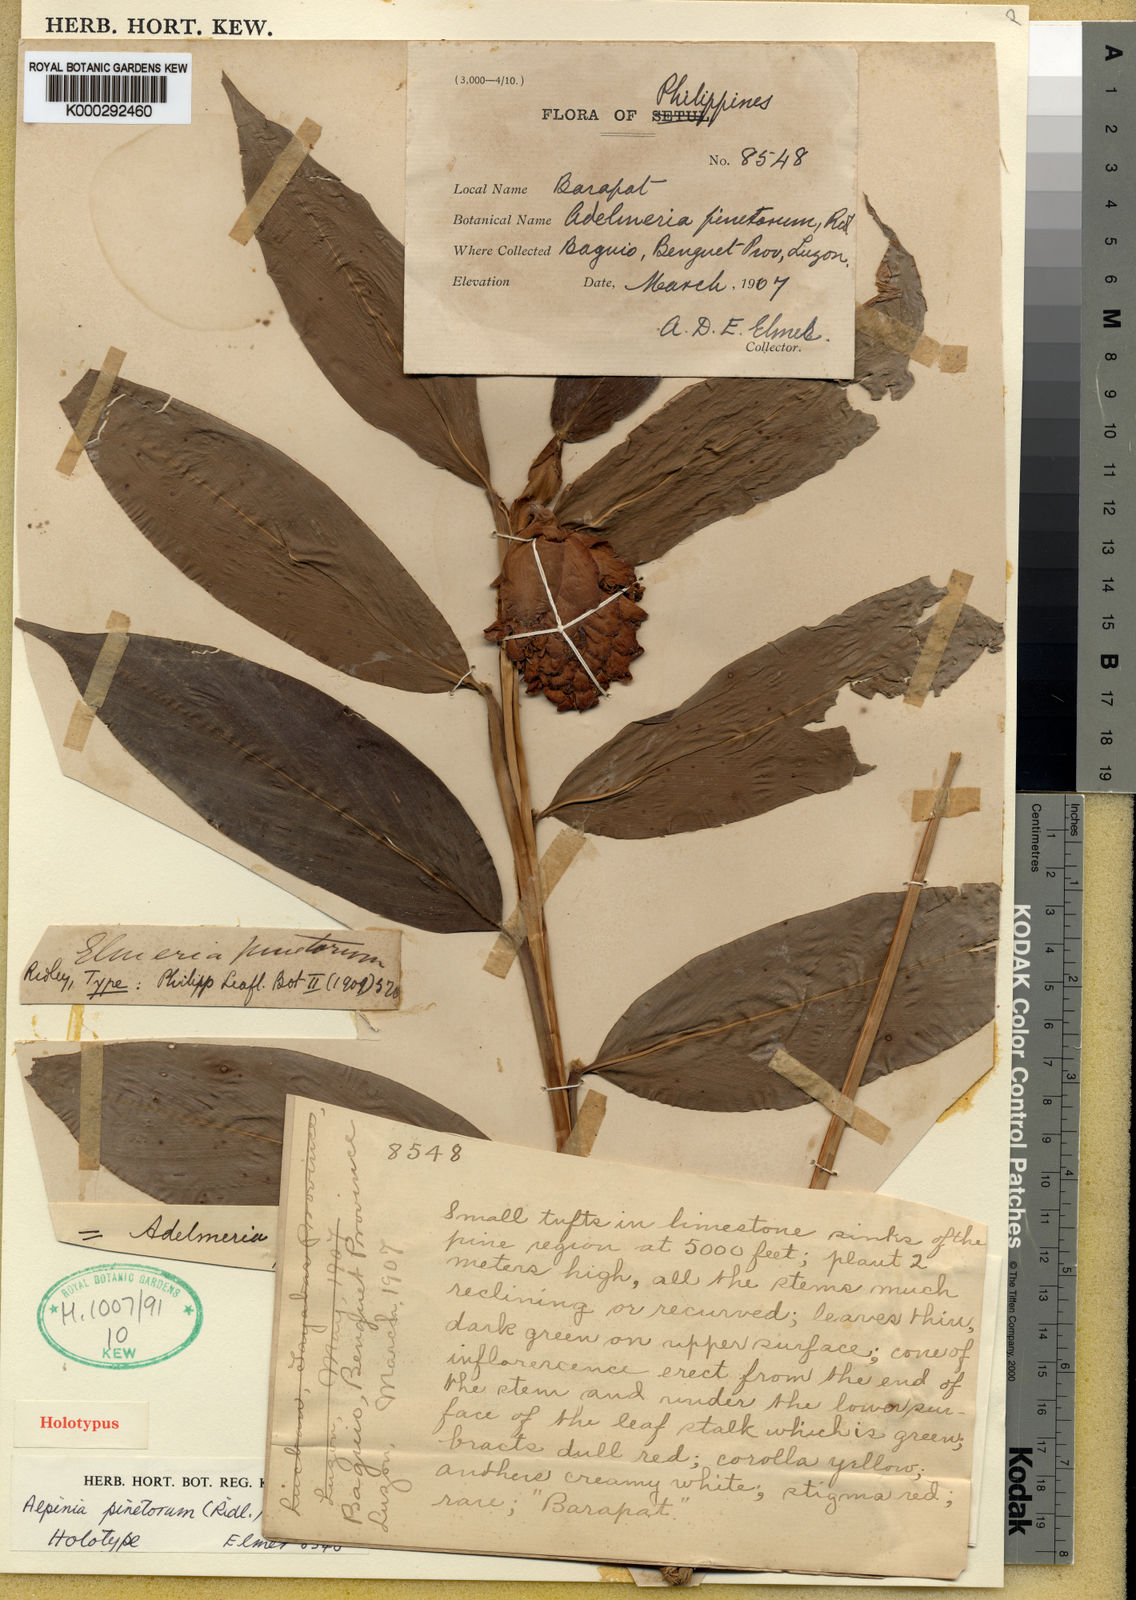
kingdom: Plantae
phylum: Tracheophyta
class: Liliopsida
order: Zingiberales
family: Zingiberaceae
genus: Adelmeria
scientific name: Adelmeria pinetorum
